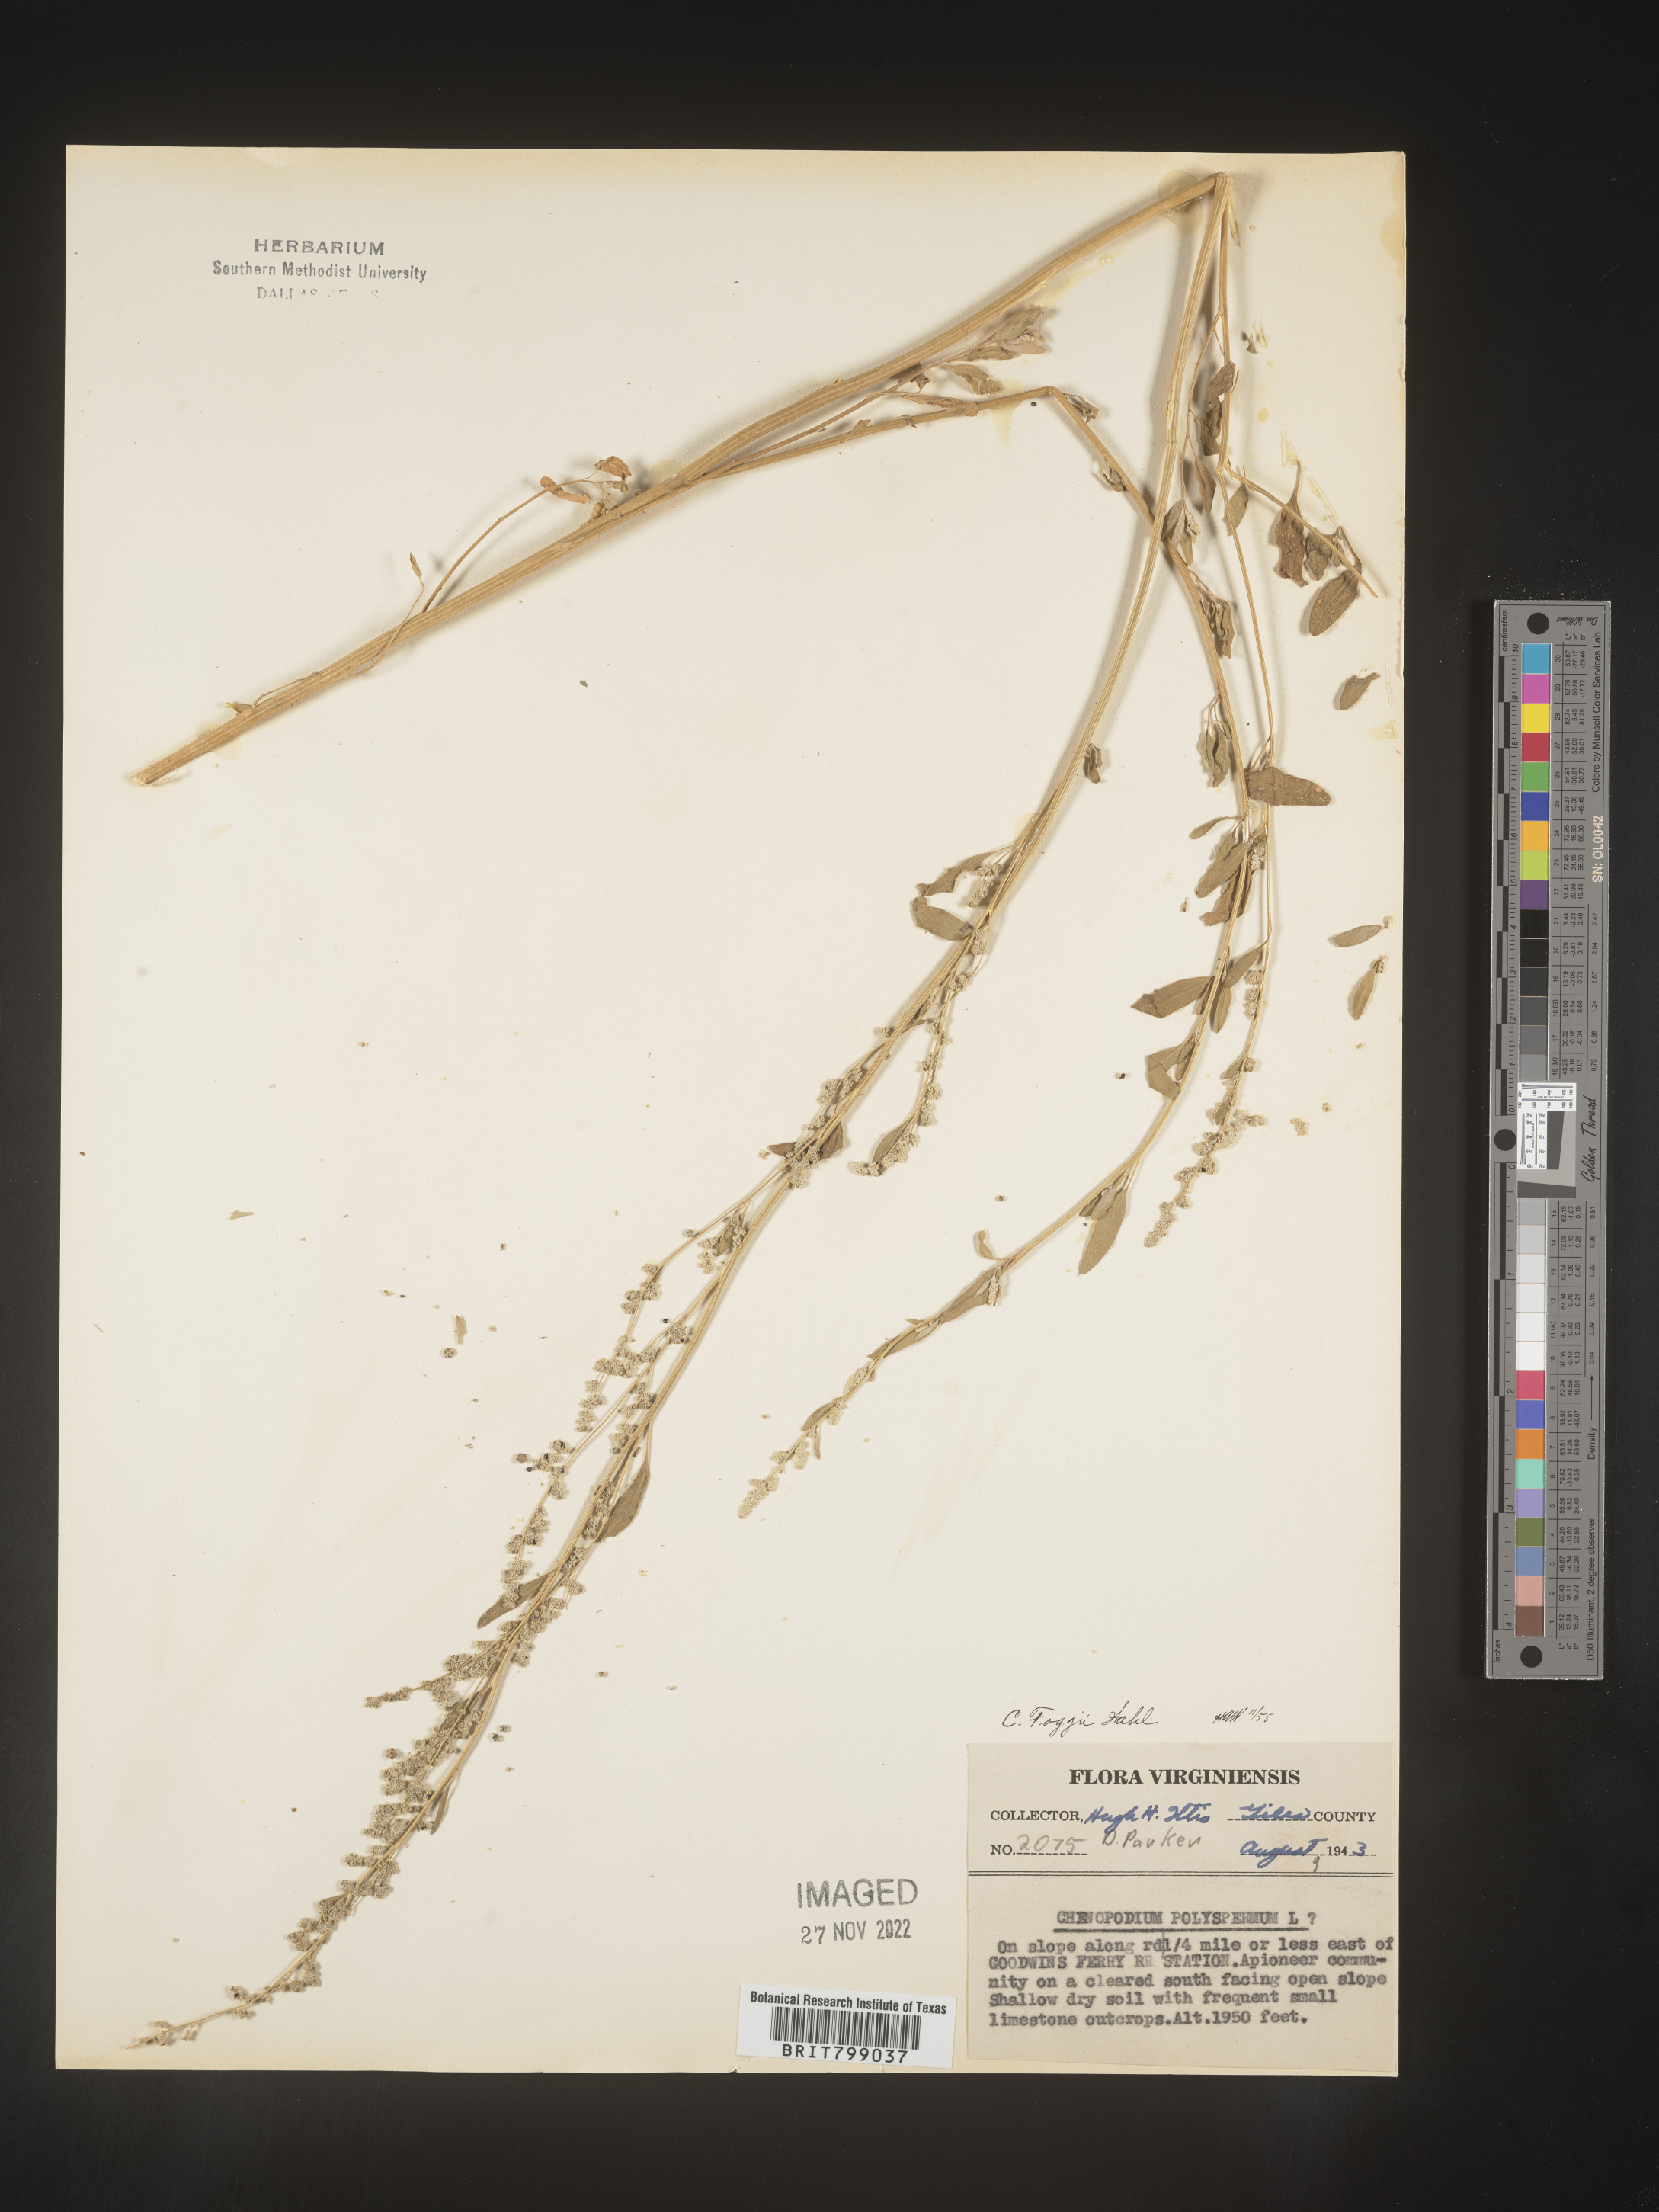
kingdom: Plantae
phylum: Tracheophyta
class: Magnoliopsida
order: Caryophyllales
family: Amaranthaceae
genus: Chenopodium
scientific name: Chenopodium
